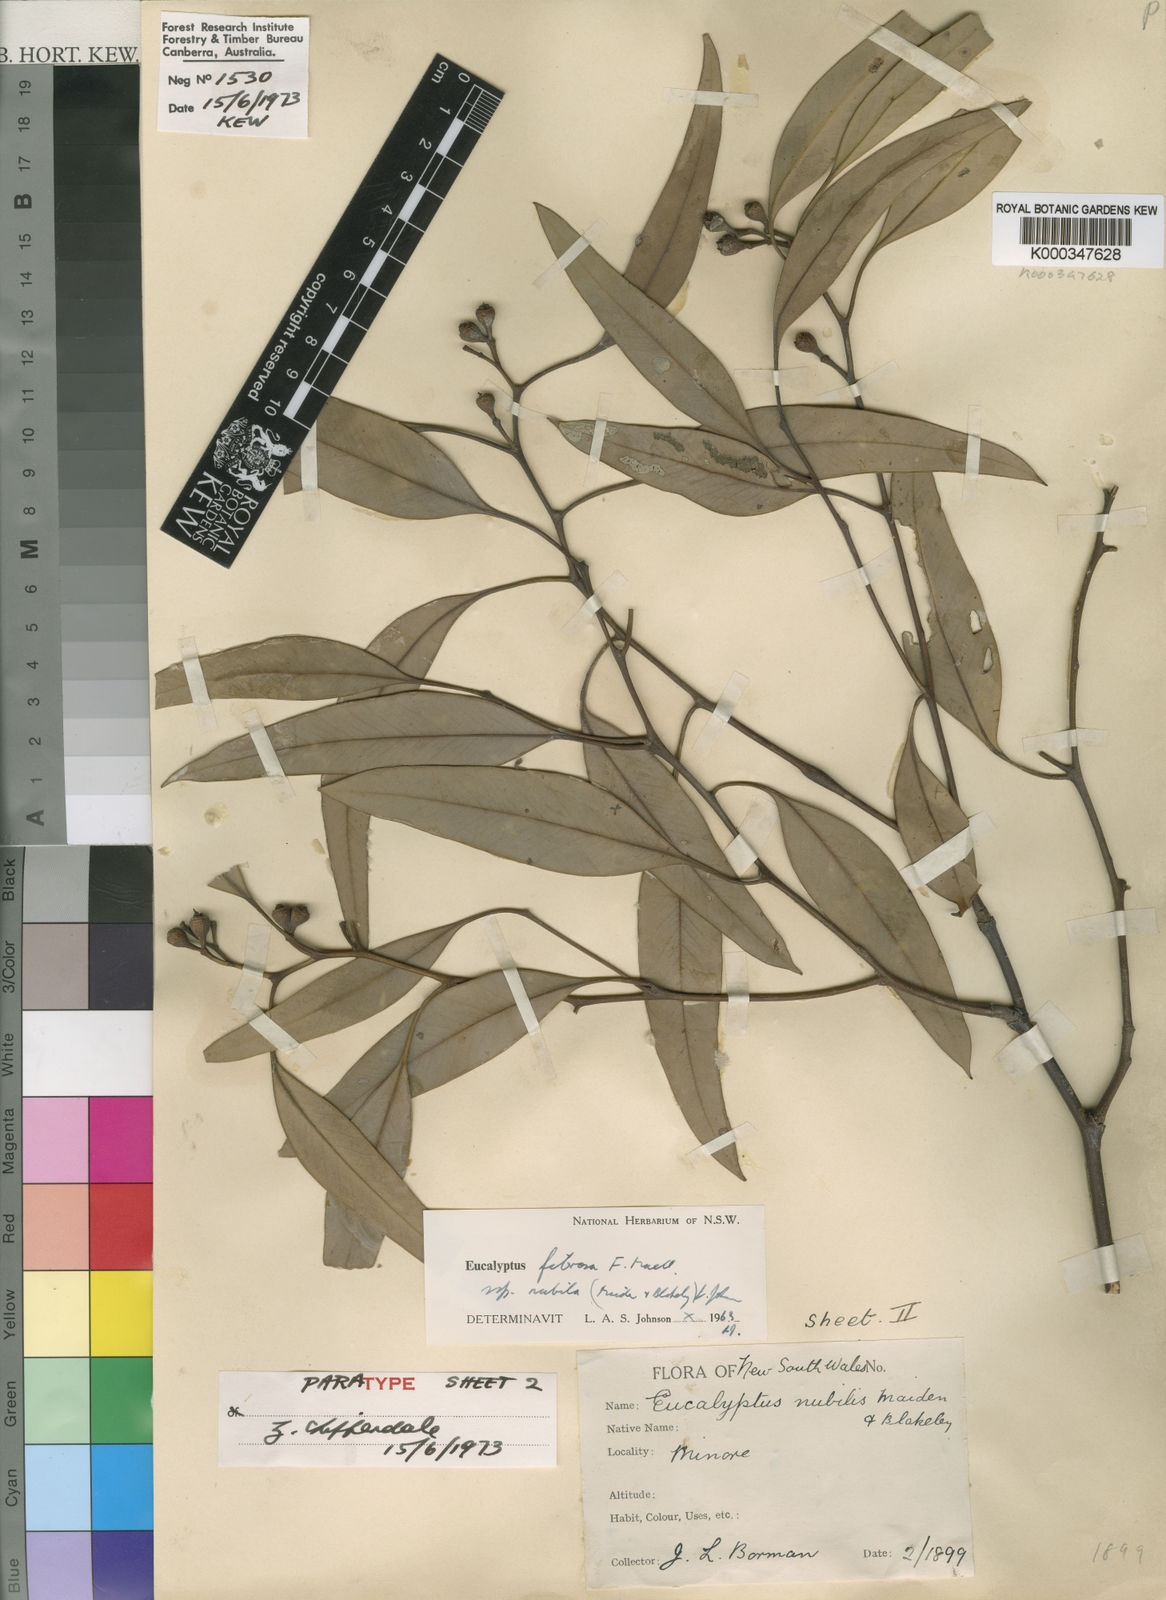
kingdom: Plantae
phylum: Tracheophyta
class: Magnoliopsida
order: Myrtales
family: Myrtaceae
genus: Eucalyptus
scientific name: Eucalyptus fibrosa
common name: Red ironbark
